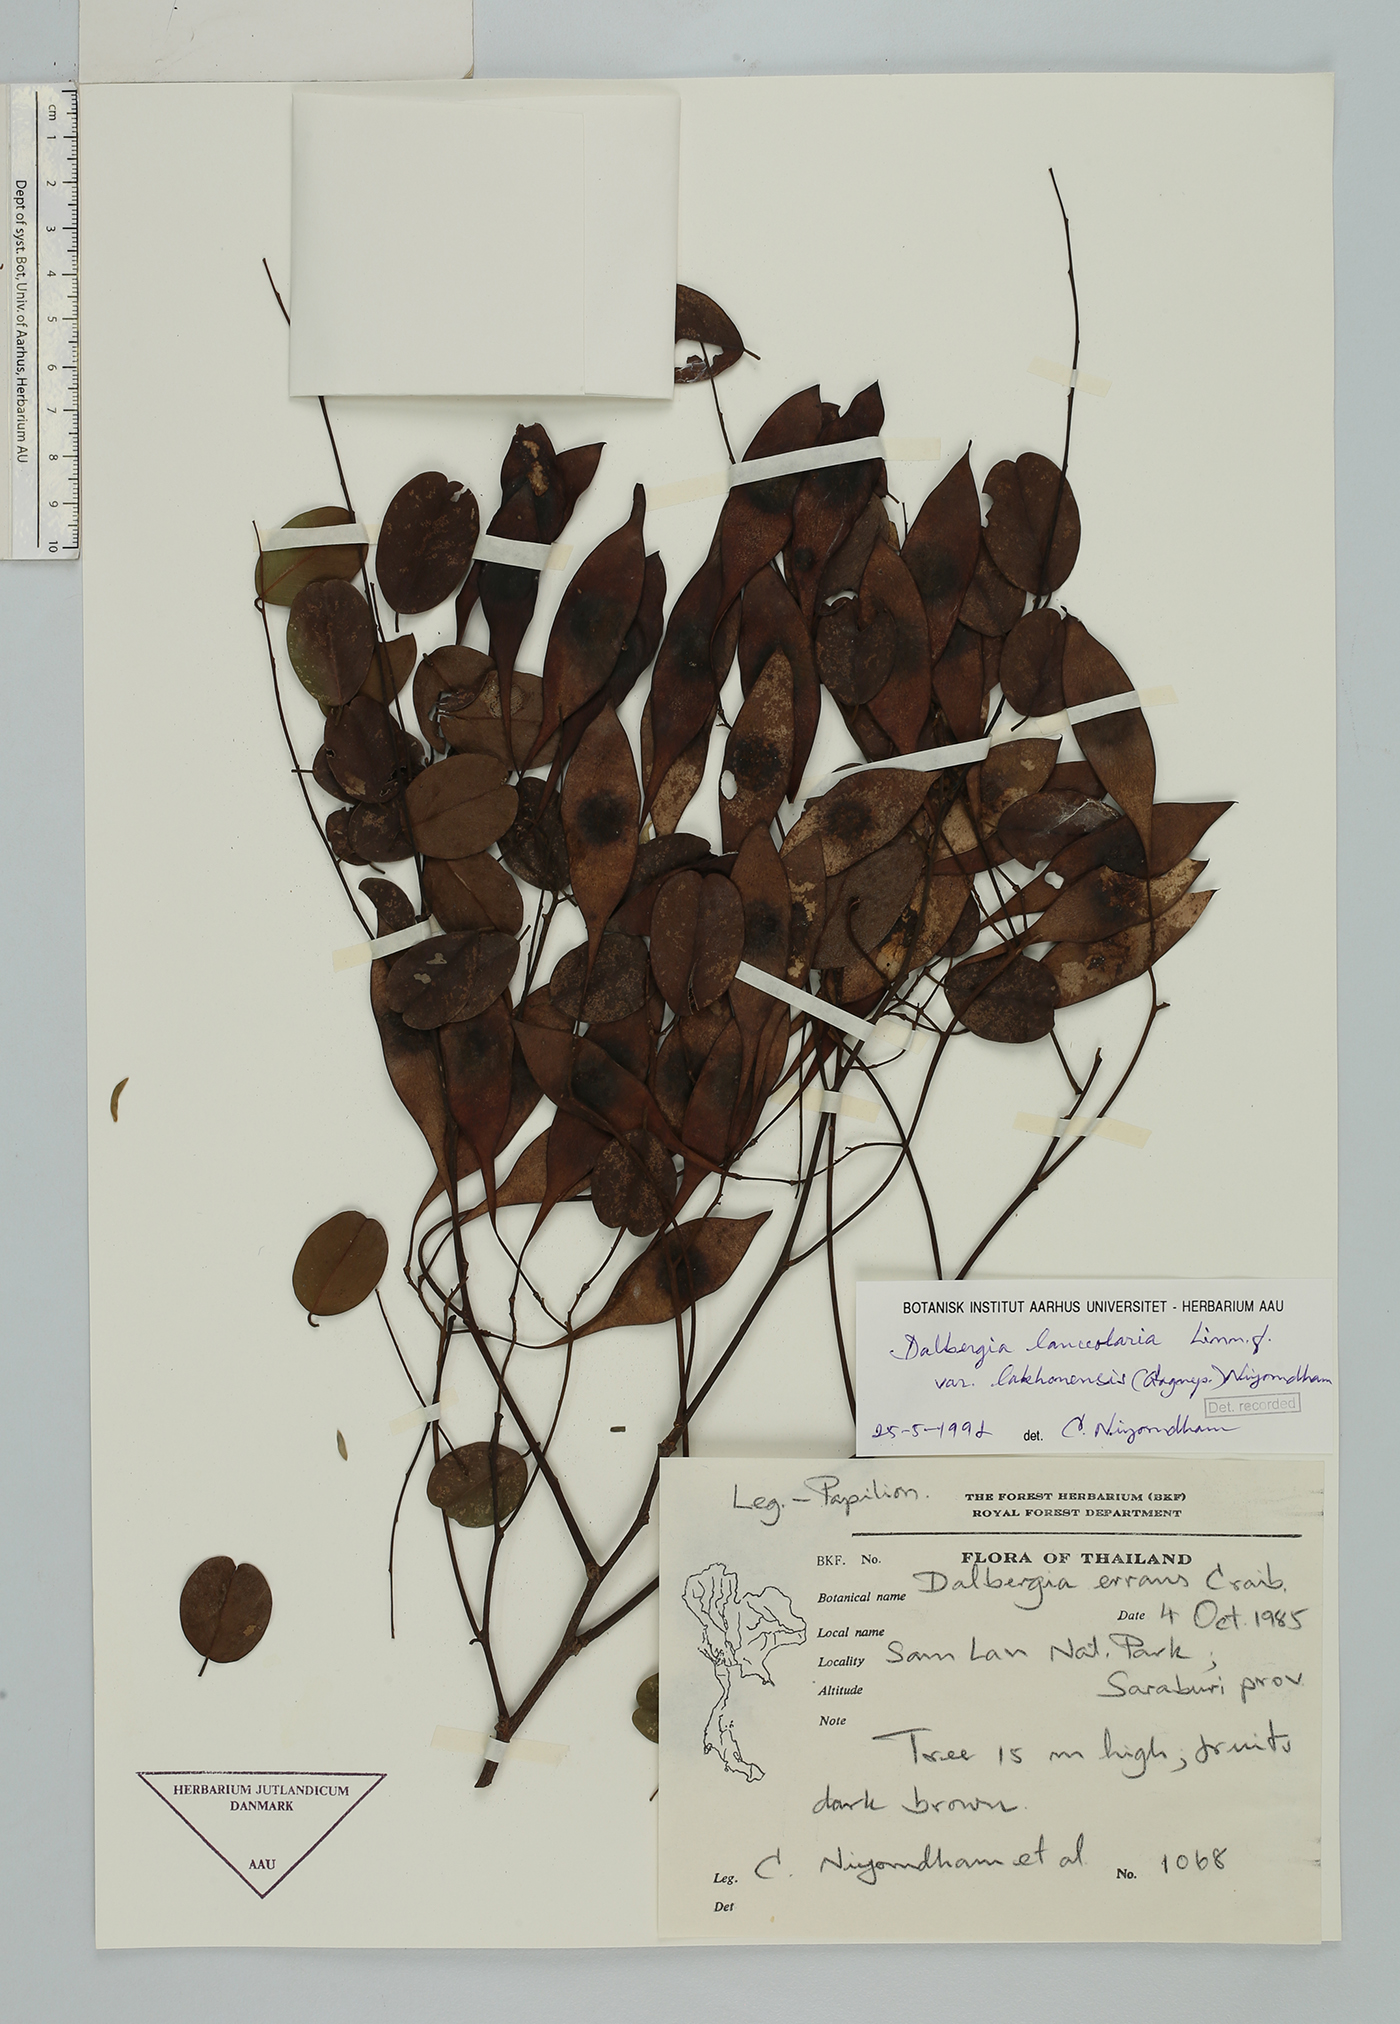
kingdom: Plantae
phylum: Tracheophyta
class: Magnoliopsida
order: Fabales
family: Fabaceae
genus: Dalbergia
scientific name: Dalbergia lanceolaria
